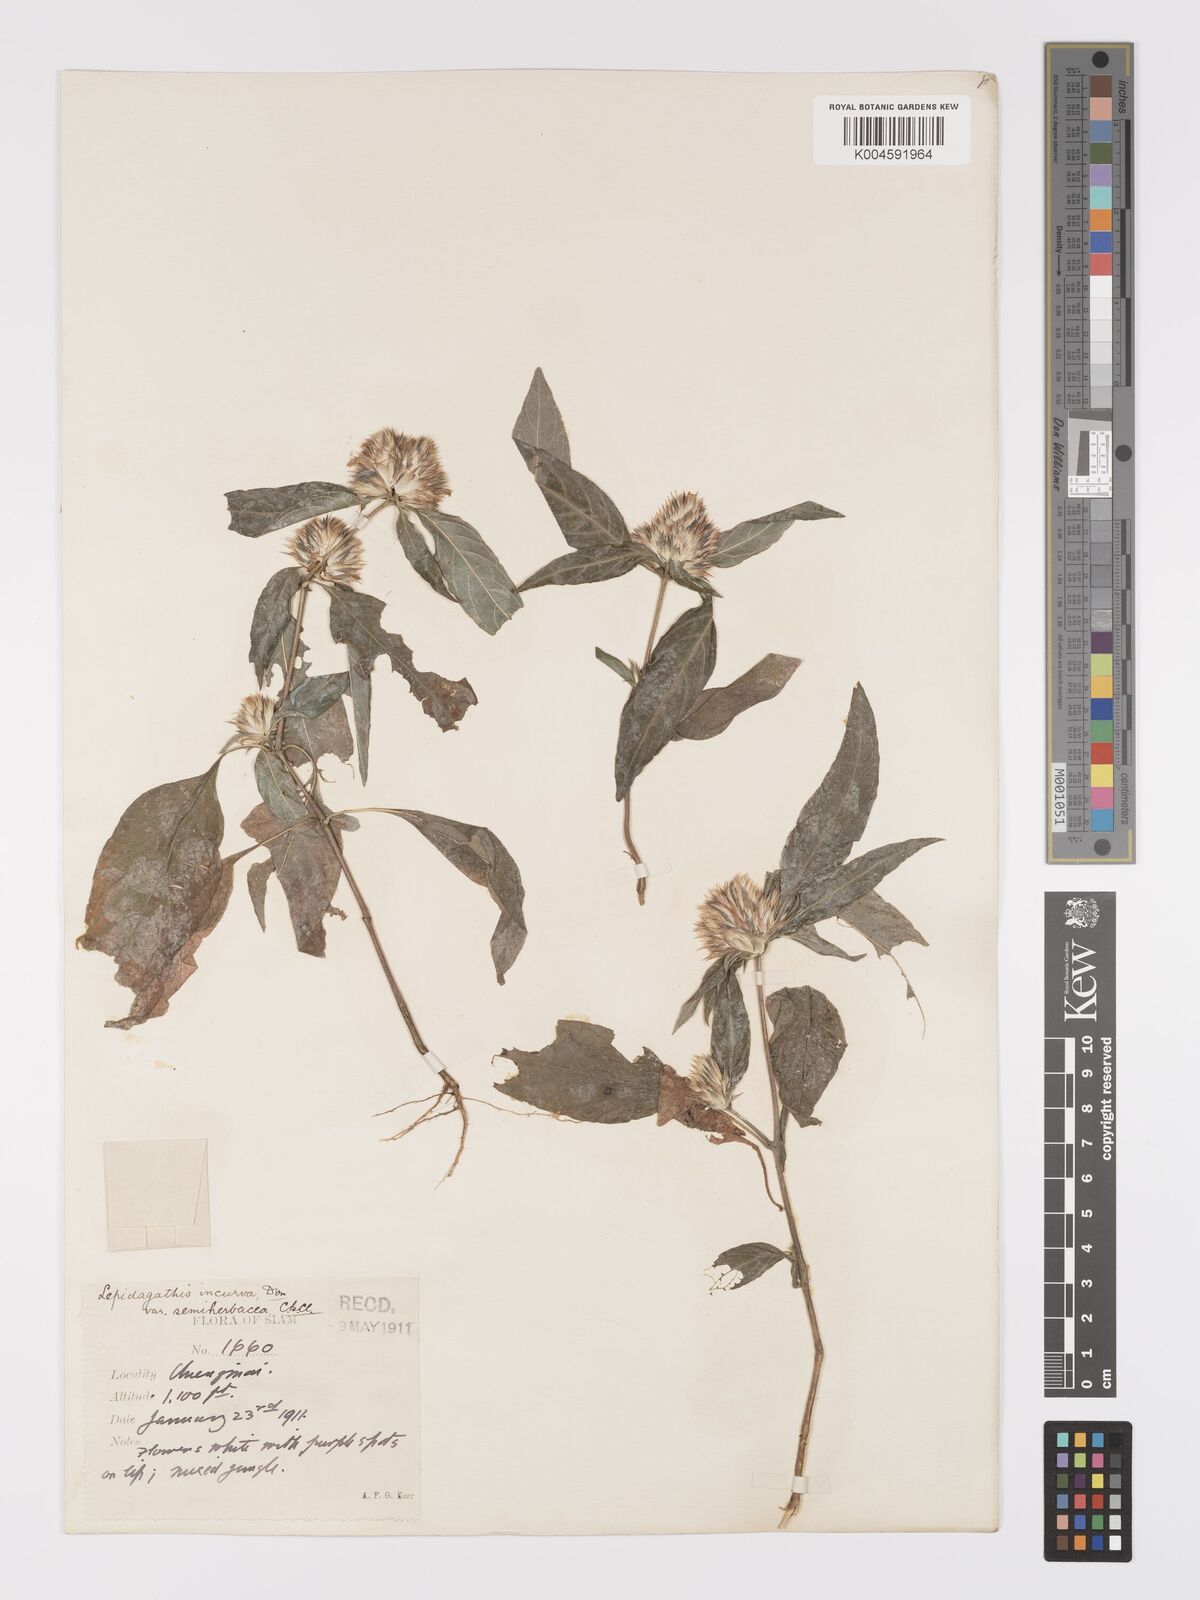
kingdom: Plantae
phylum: Tracheophyta
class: Magnoliopsida
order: Lamiales
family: Acanthaceae
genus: Lepidagathis
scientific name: Lepidagathis incurva
